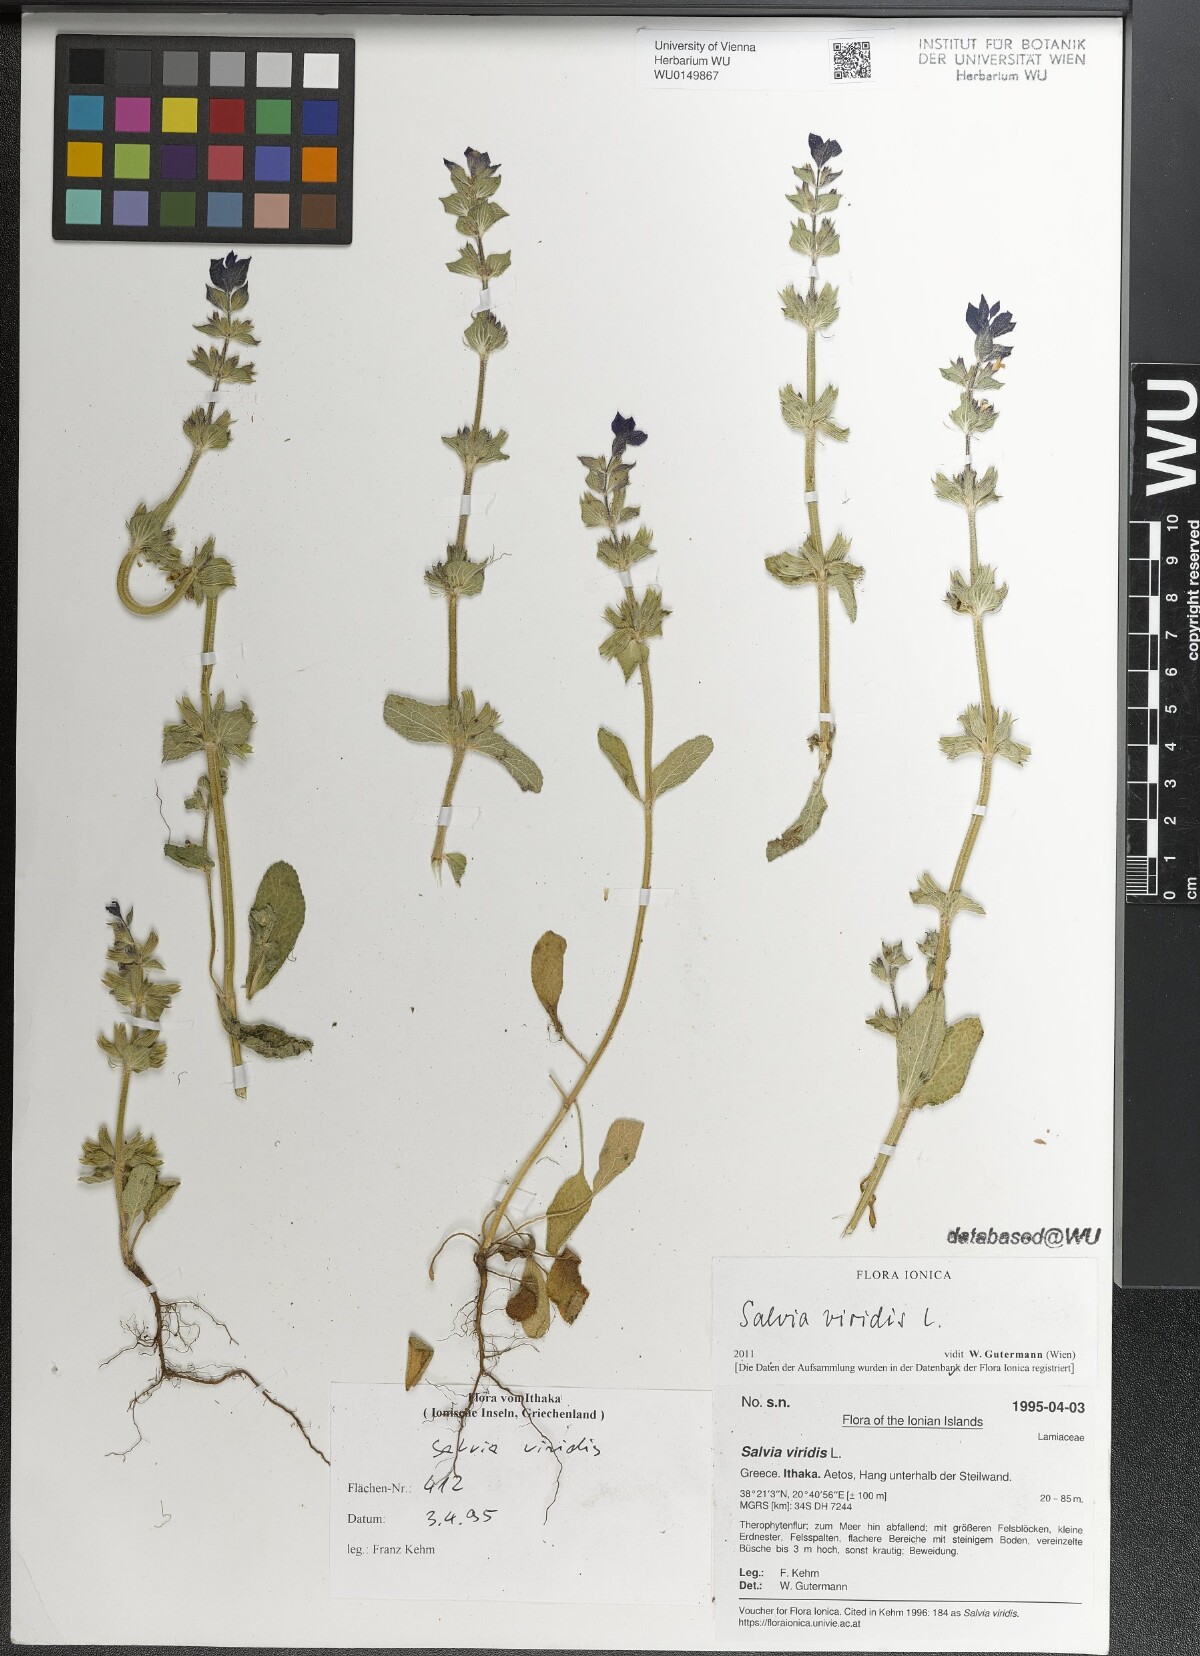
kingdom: Plantae
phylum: Tracheophyta
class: Magnoliopsida
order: Lamiales
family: Lamiaceae
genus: Salvia
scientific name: Salvia viridis
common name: Annual clary
